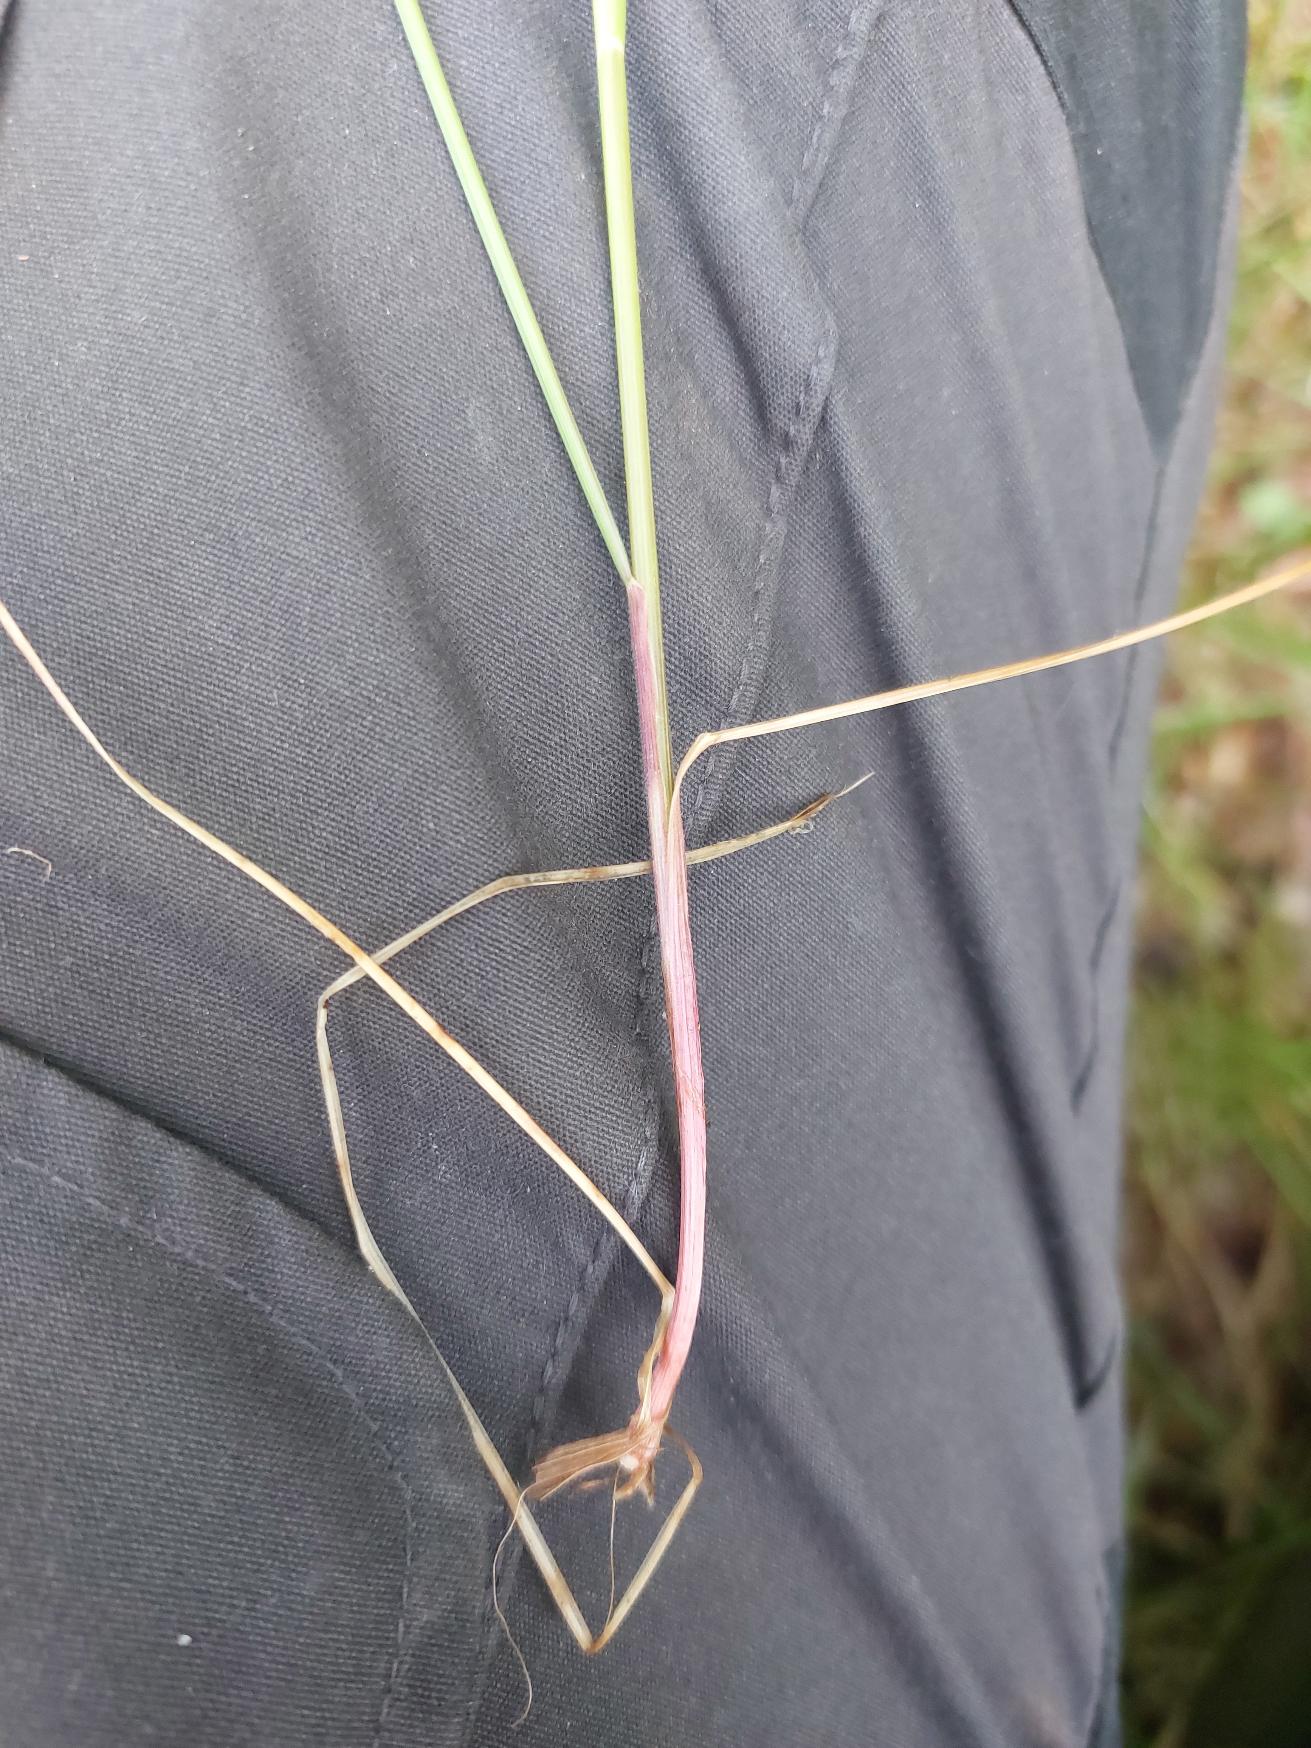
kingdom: Plantae
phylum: Tracheophyta
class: Liliopsida
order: Poales
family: Poaceae
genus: Festuca
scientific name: Festuca rubra
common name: Rød svingel
